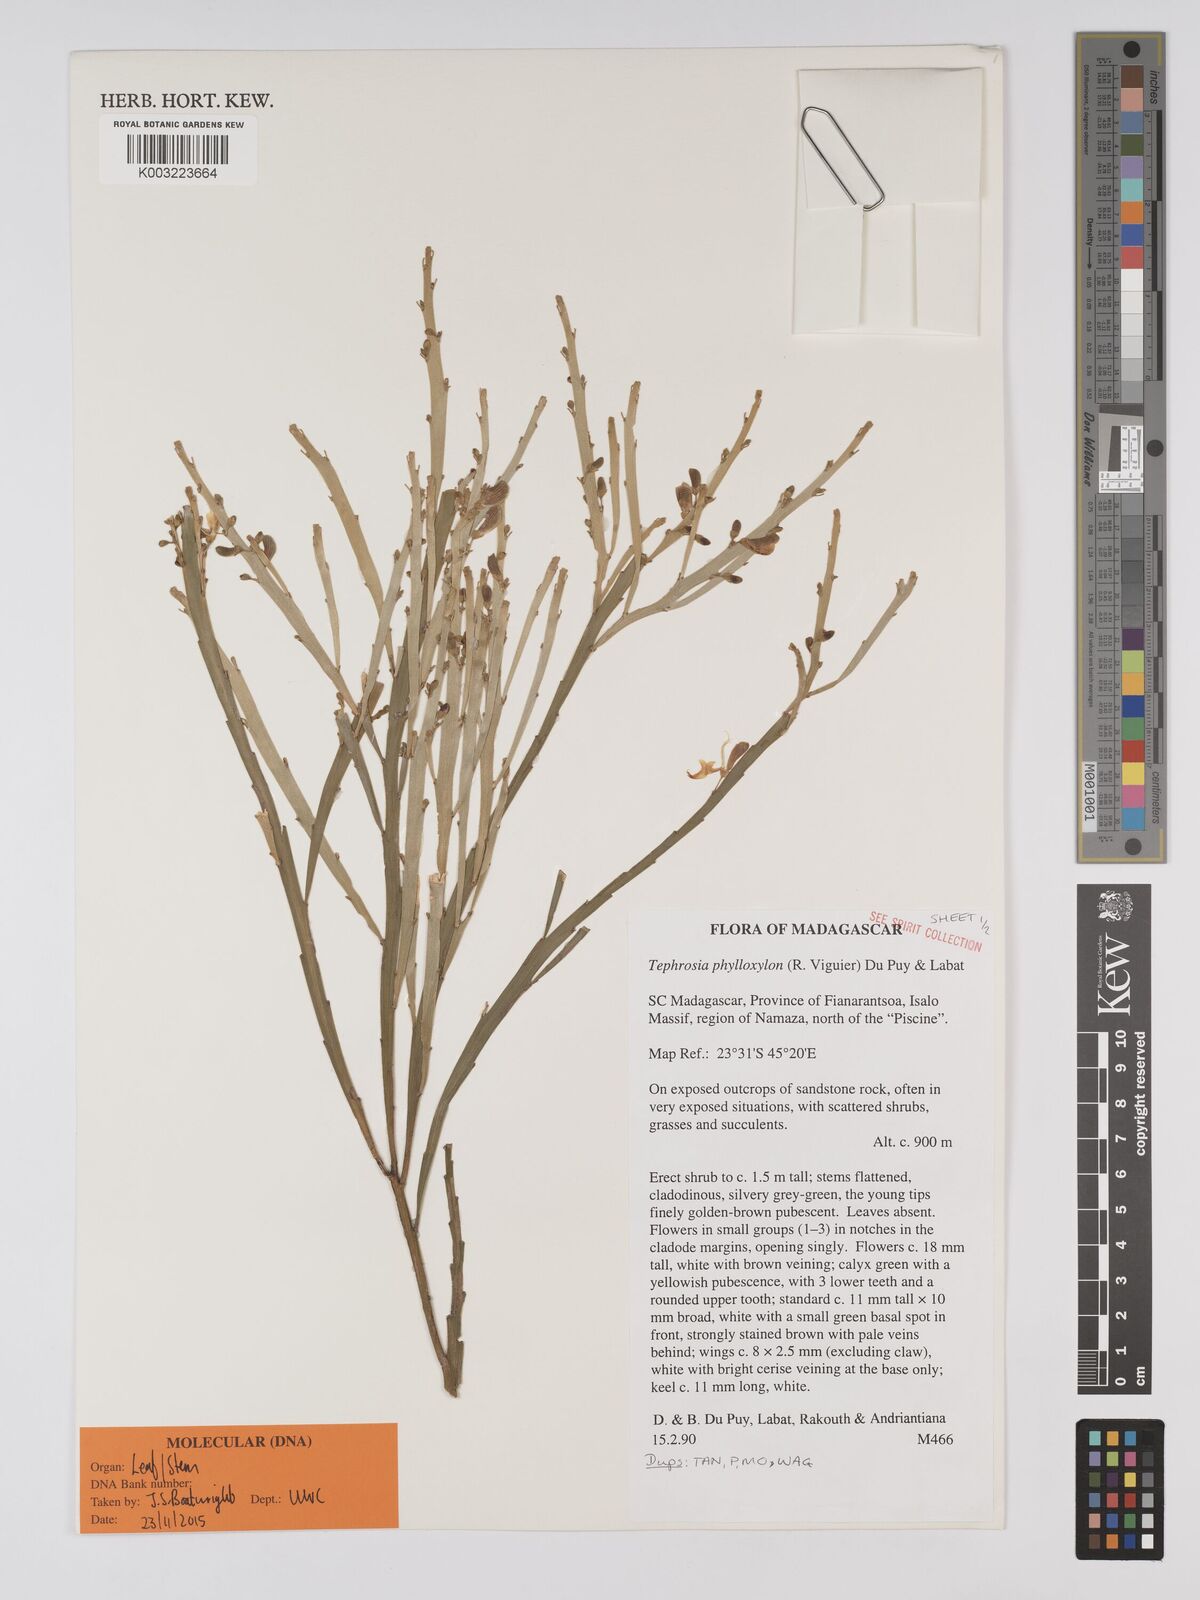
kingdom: Plantae
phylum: Tracheophyta
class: Magnoliopsida
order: Fabales
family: Fabaceae
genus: Tephrosia
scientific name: Tephrosia phylloxylon
